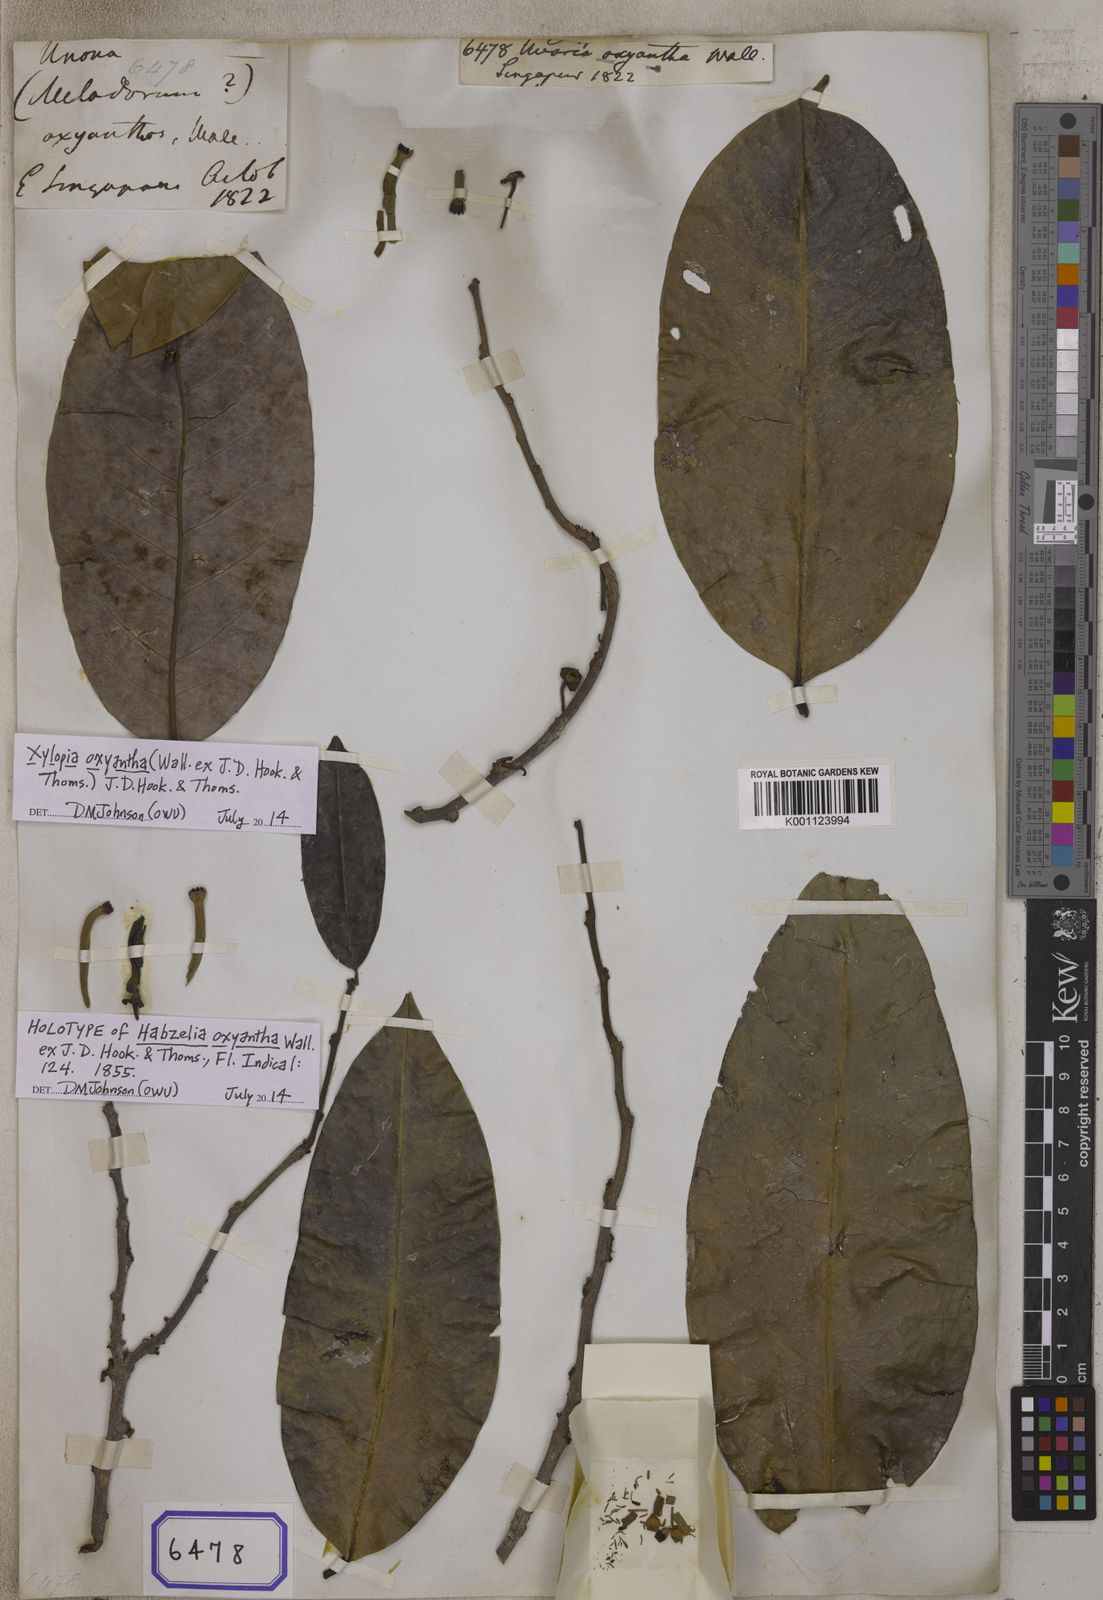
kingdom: Plantae
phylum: Tracheophyta
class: Magnoliopsida
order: Magnoliales
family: Annonaceae
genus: Xylopia
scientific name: Xylopia ferruginea
